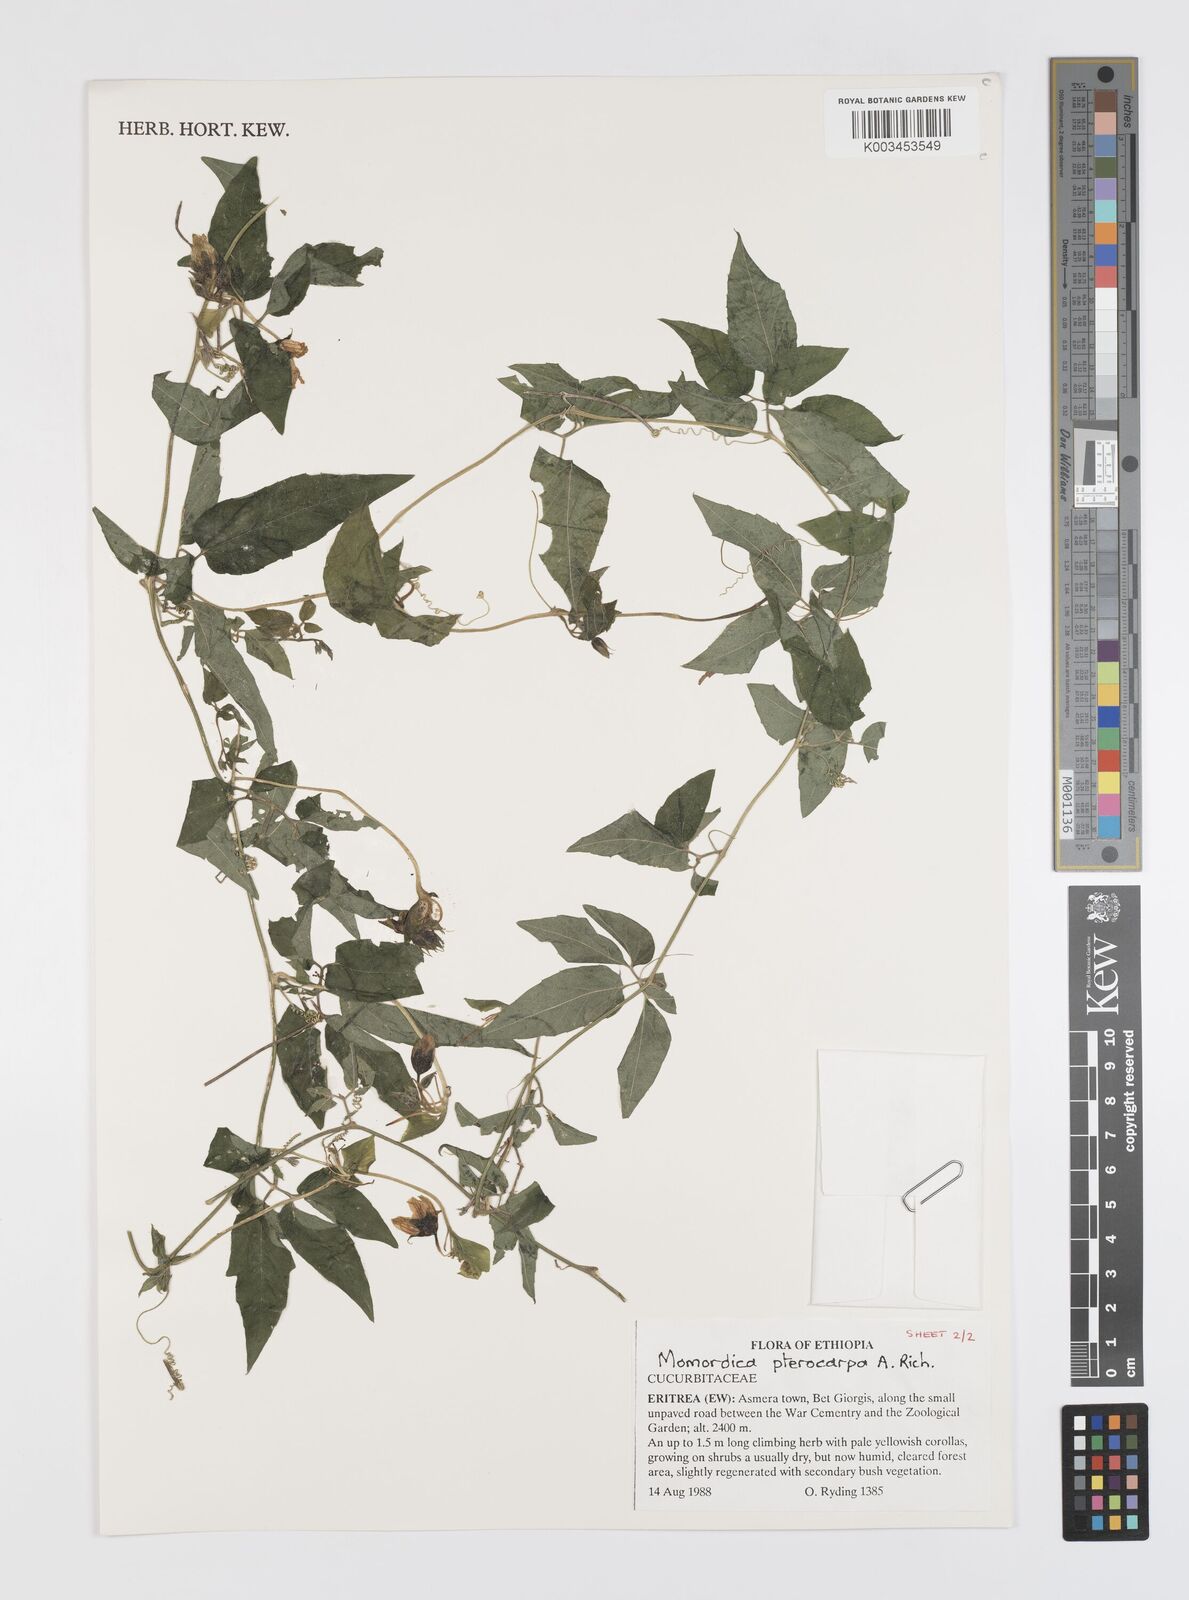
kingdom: Plantae
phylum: Tracheophyta
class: Magnoliopsida
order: Cucurbitales
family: Cucurbitaceae
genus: Momordica
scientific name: Momordica pterocarpa
